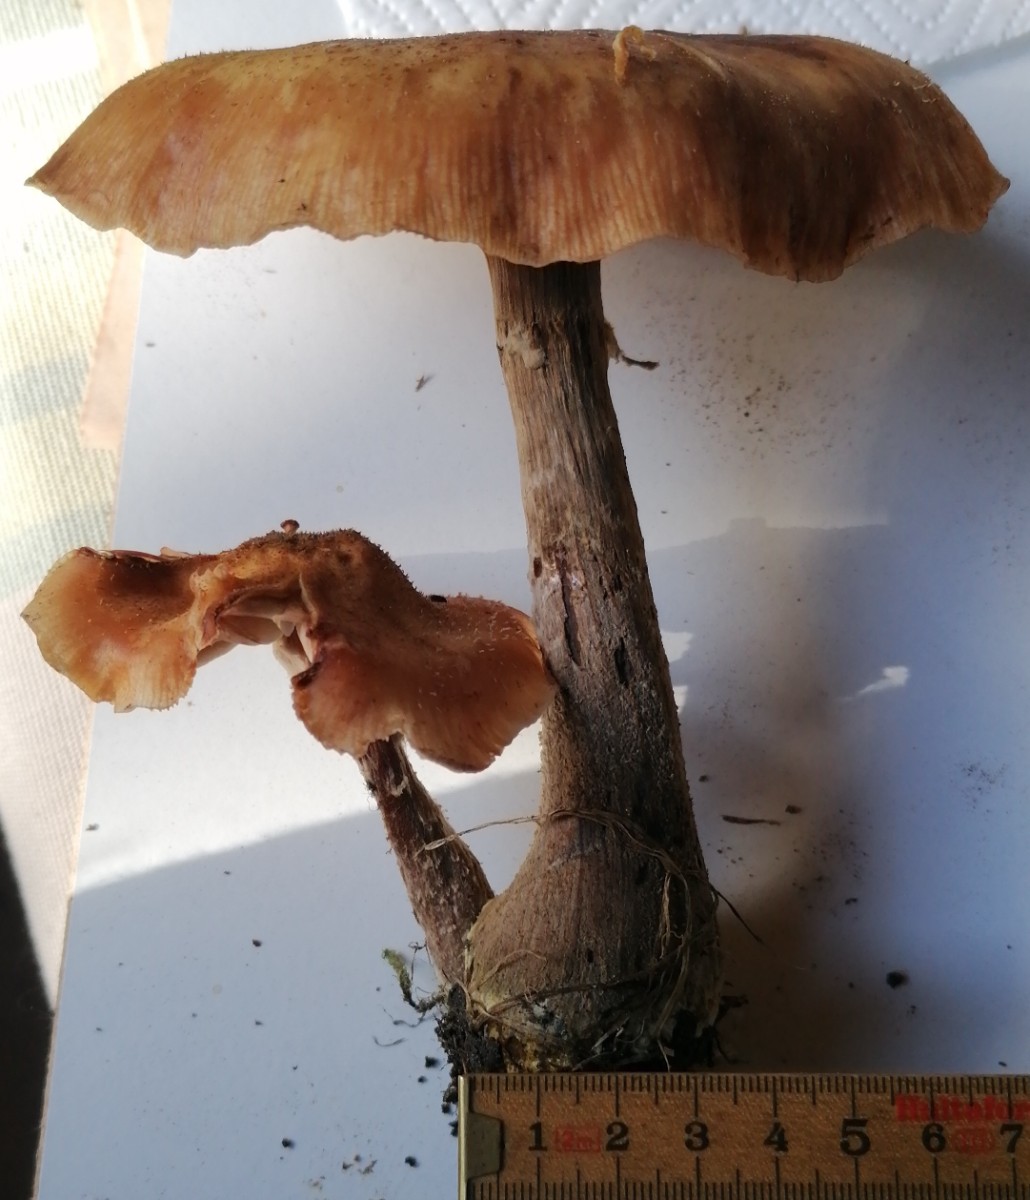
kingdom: Fungi
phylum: Basidiomycota
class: Agaricomycetes
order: Agaricales
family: Physalacriaceae
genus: Armillaria
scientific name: Armillaria
